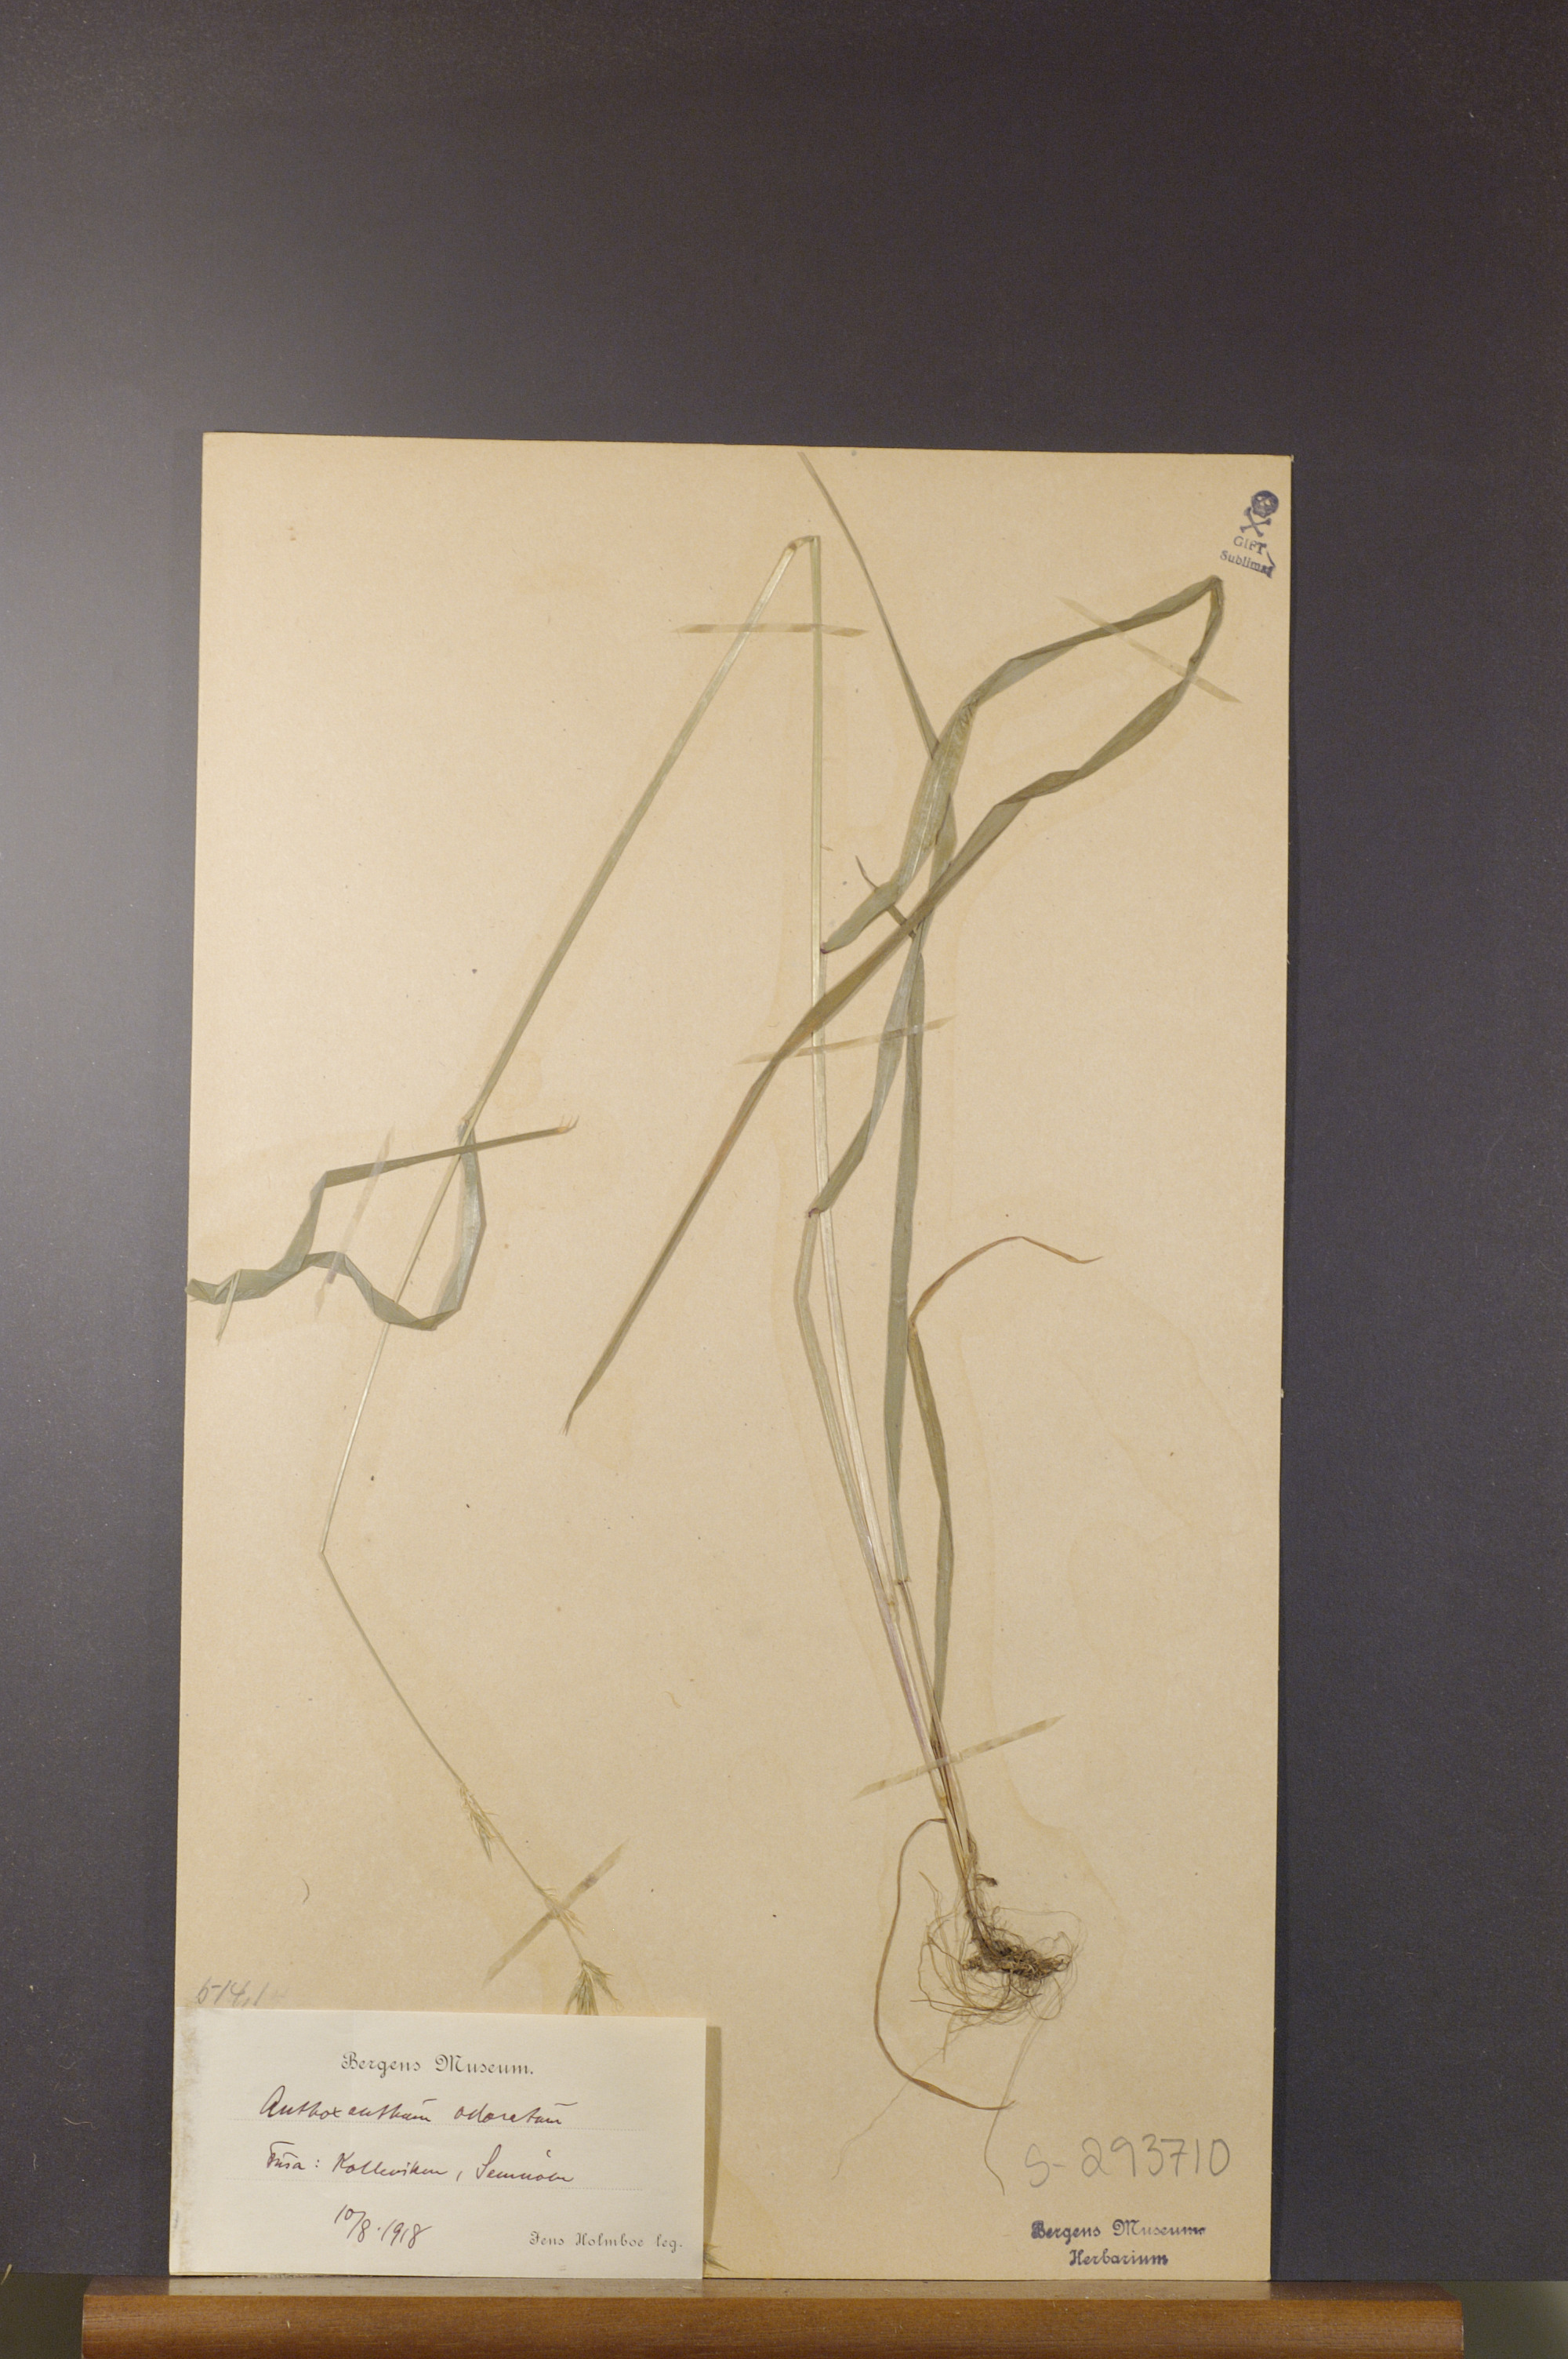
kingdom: Plantae
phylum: Tracheophyta
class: Liliopsida
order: Poales
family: Poaceae
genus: Anthoxanthum
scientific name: Anthoxanthum odoratum
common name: Sweet vernalgrass
